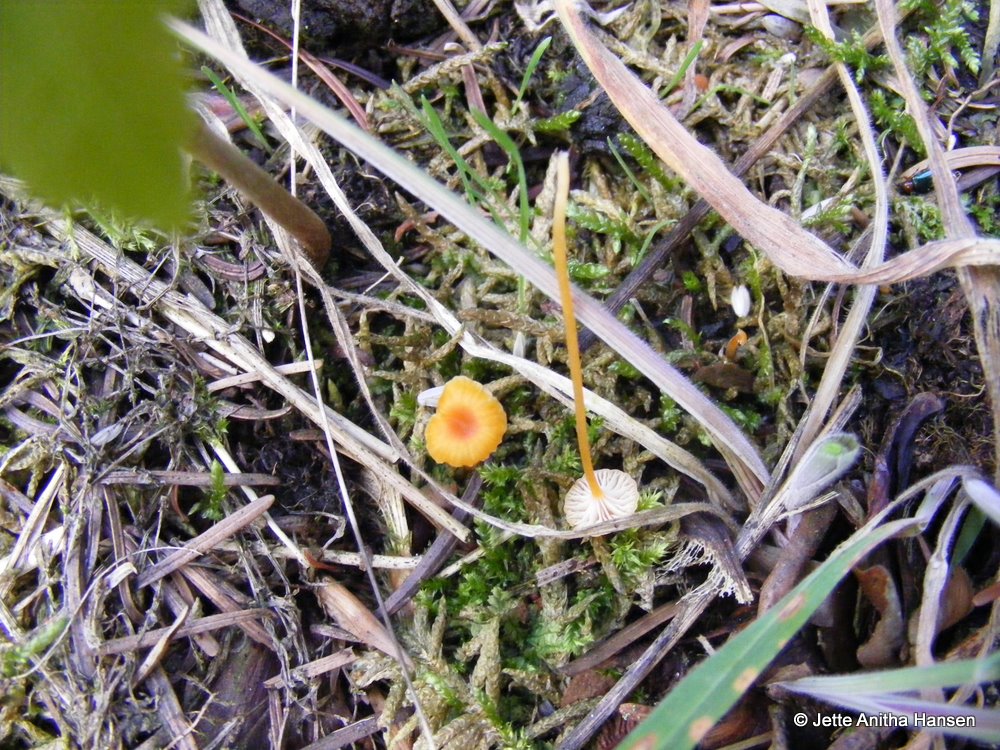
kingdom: Fungi
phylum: Basidiomycota
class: Agaricomycetes
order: Hymenochaetales
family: Rickenellaceae
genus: Rickenella
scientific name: Rickenella fibula
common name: orange mosnavlehat
